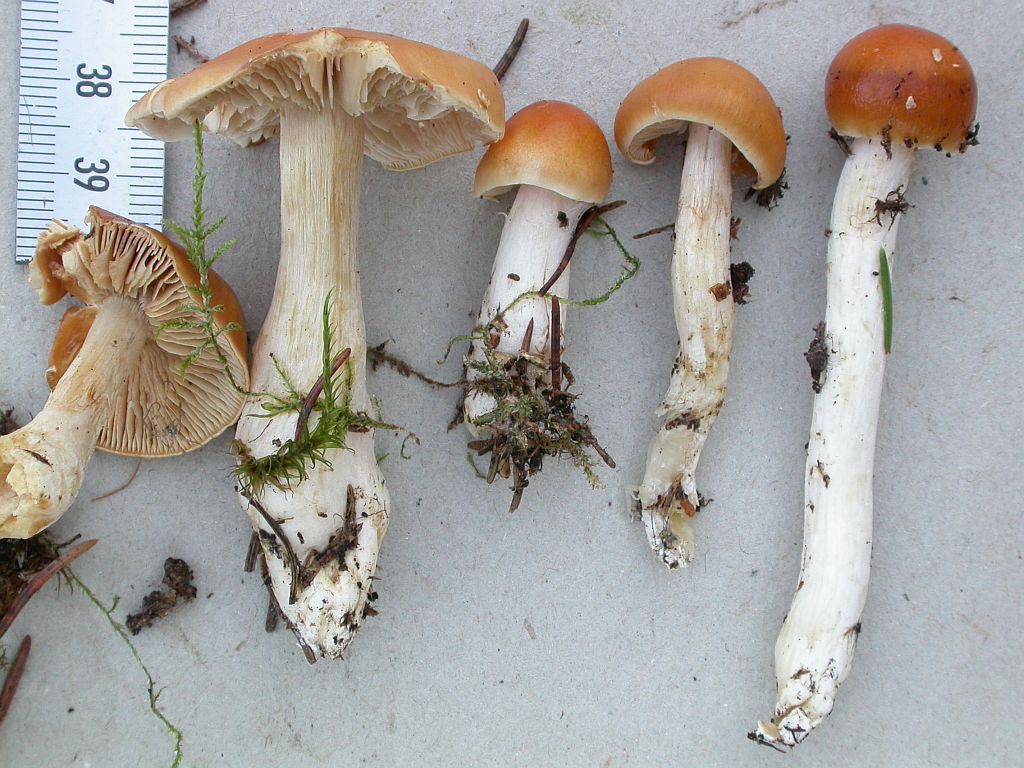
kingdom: Fungi
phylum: Basidiomycota
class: Agaricomycetes
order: Agaricales
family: Cortinariaceae
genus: Thaxterogaster
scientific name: Thaxterogaster pluvius
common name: hvidgul slørhat
